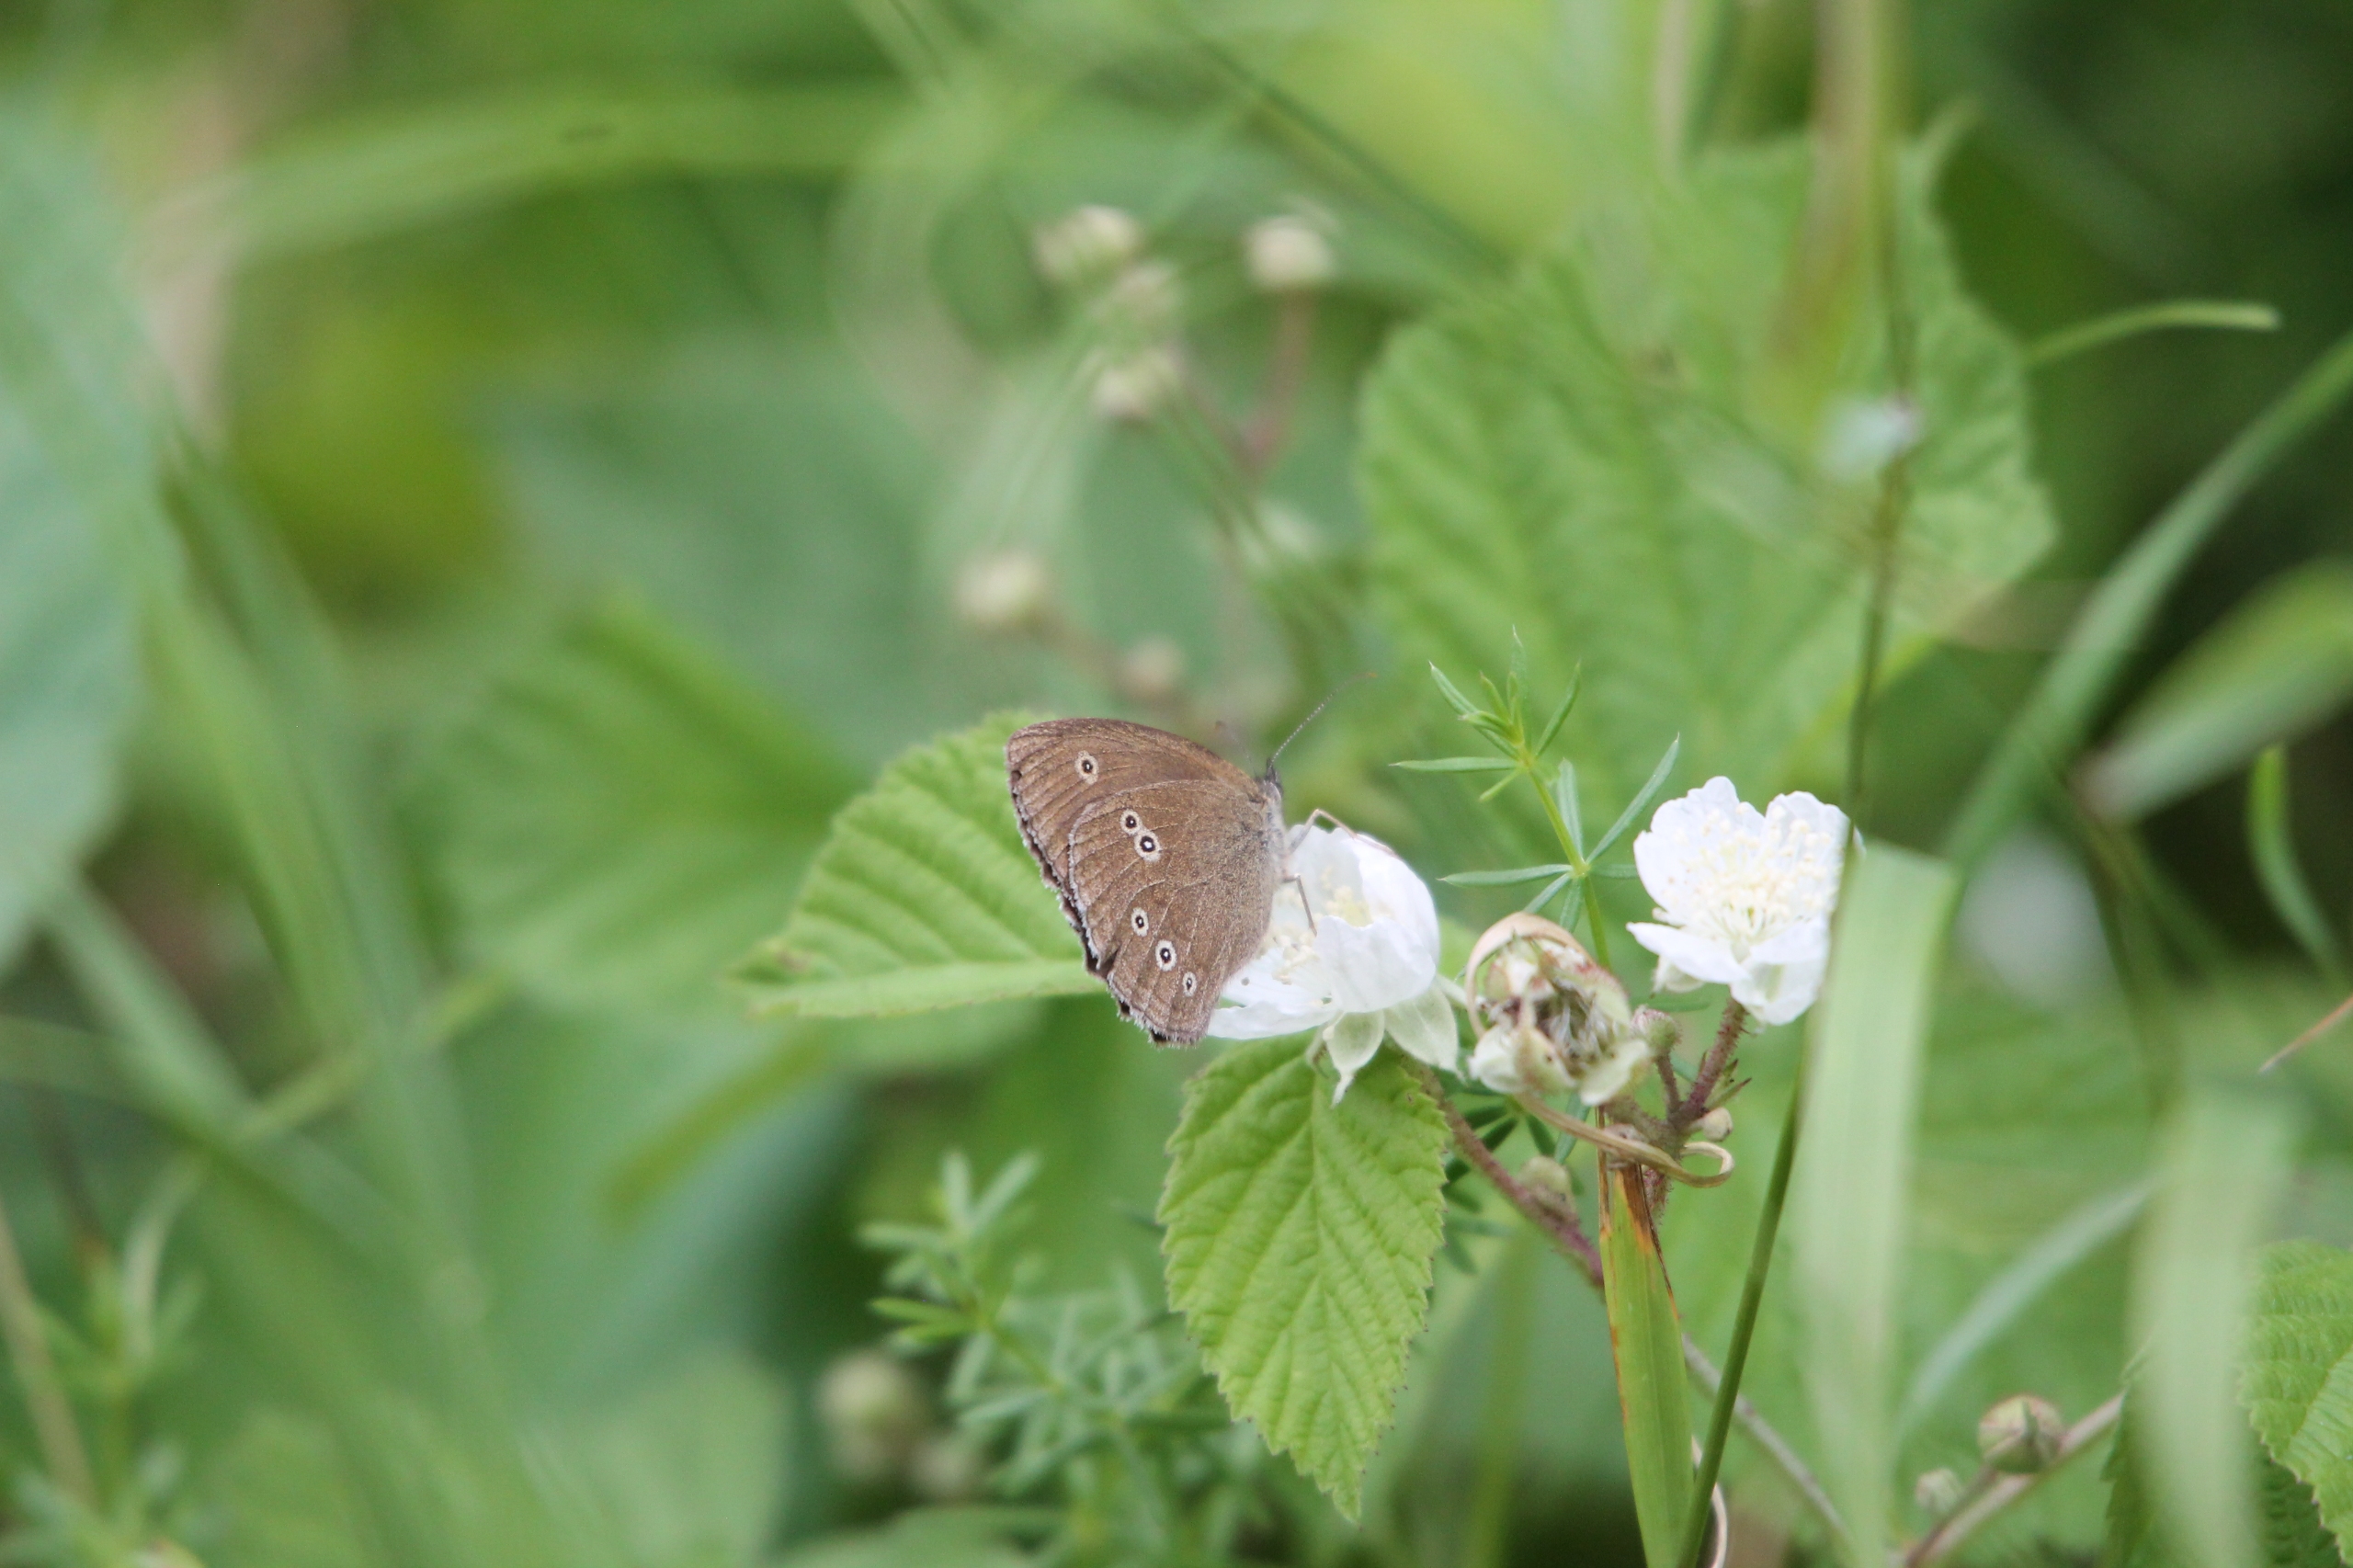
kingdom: Animalia
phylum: Arthropoda
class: Insecta
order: Lepidoptera
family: Nymphalidae
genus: Aphantopus
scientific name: Aphantopus hyperantus
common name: Engrandøje
